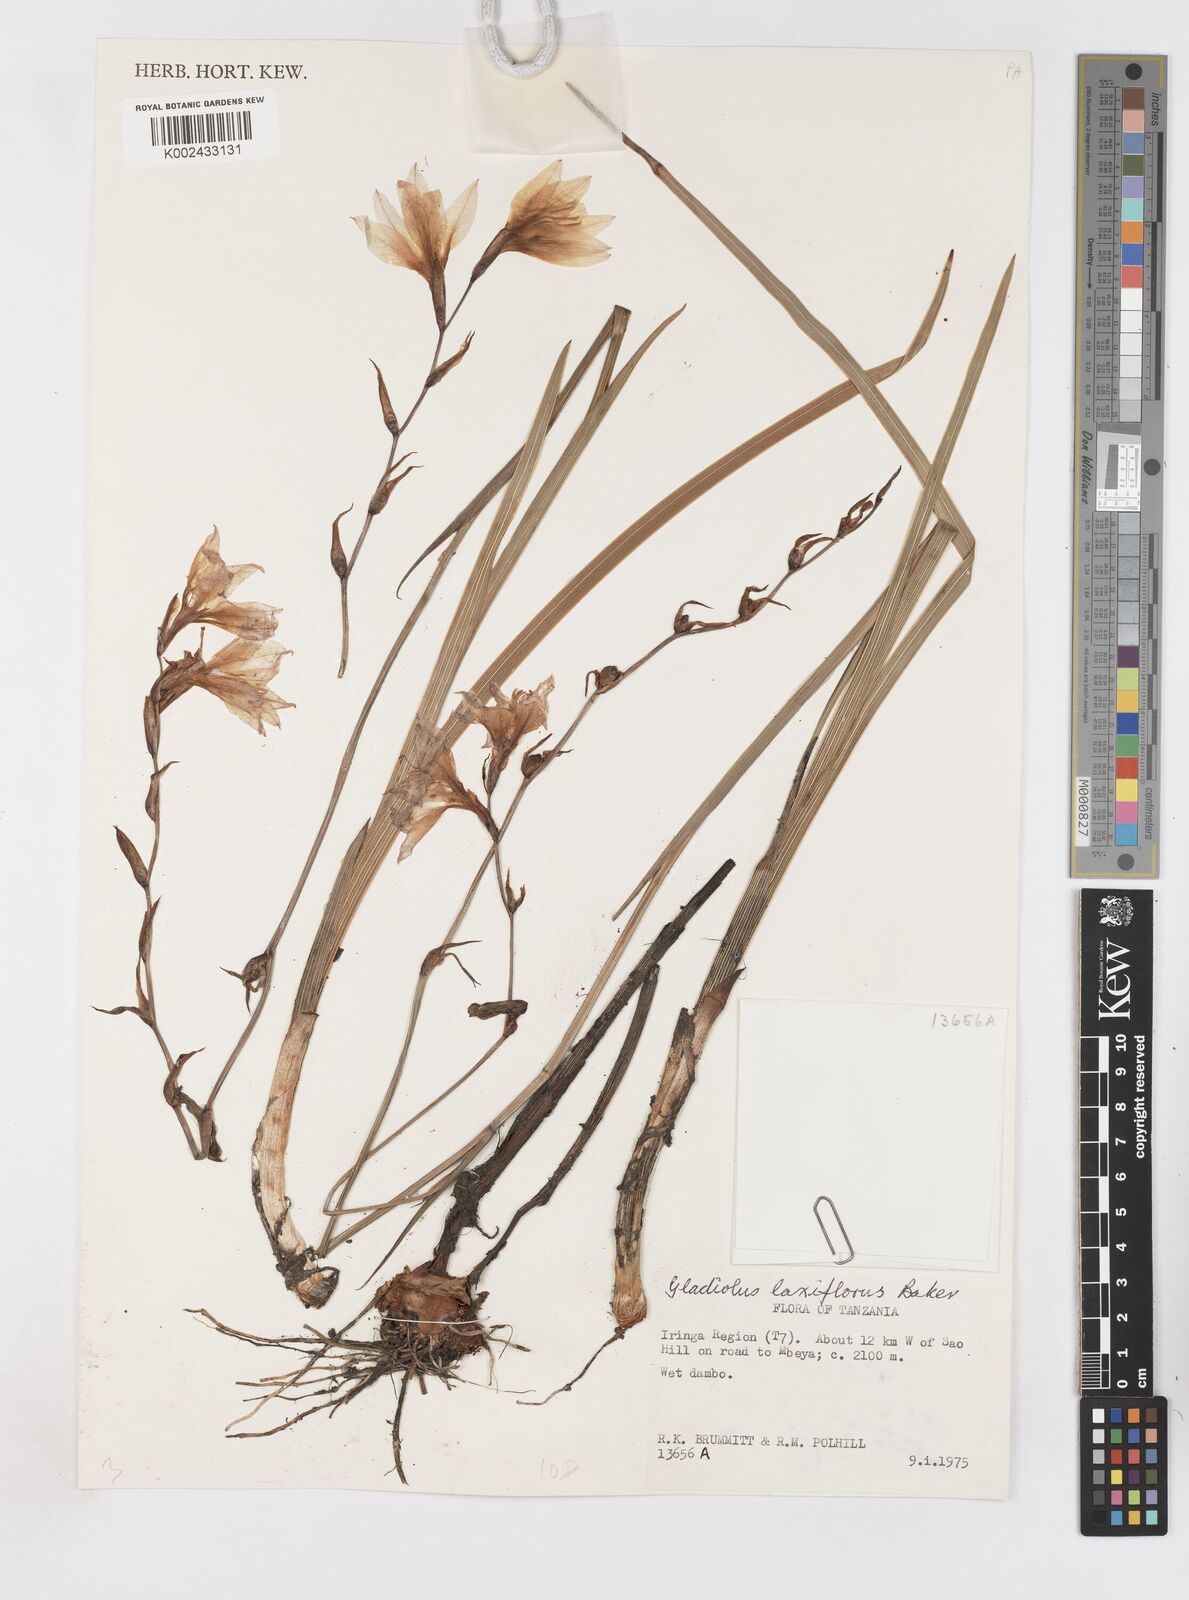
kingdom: Plantae
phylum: Tracheophyta
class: Liliopsida
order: Asparagales
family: Iridaceae
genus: Gladiolus
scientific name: Gladiolus laxiflorus
